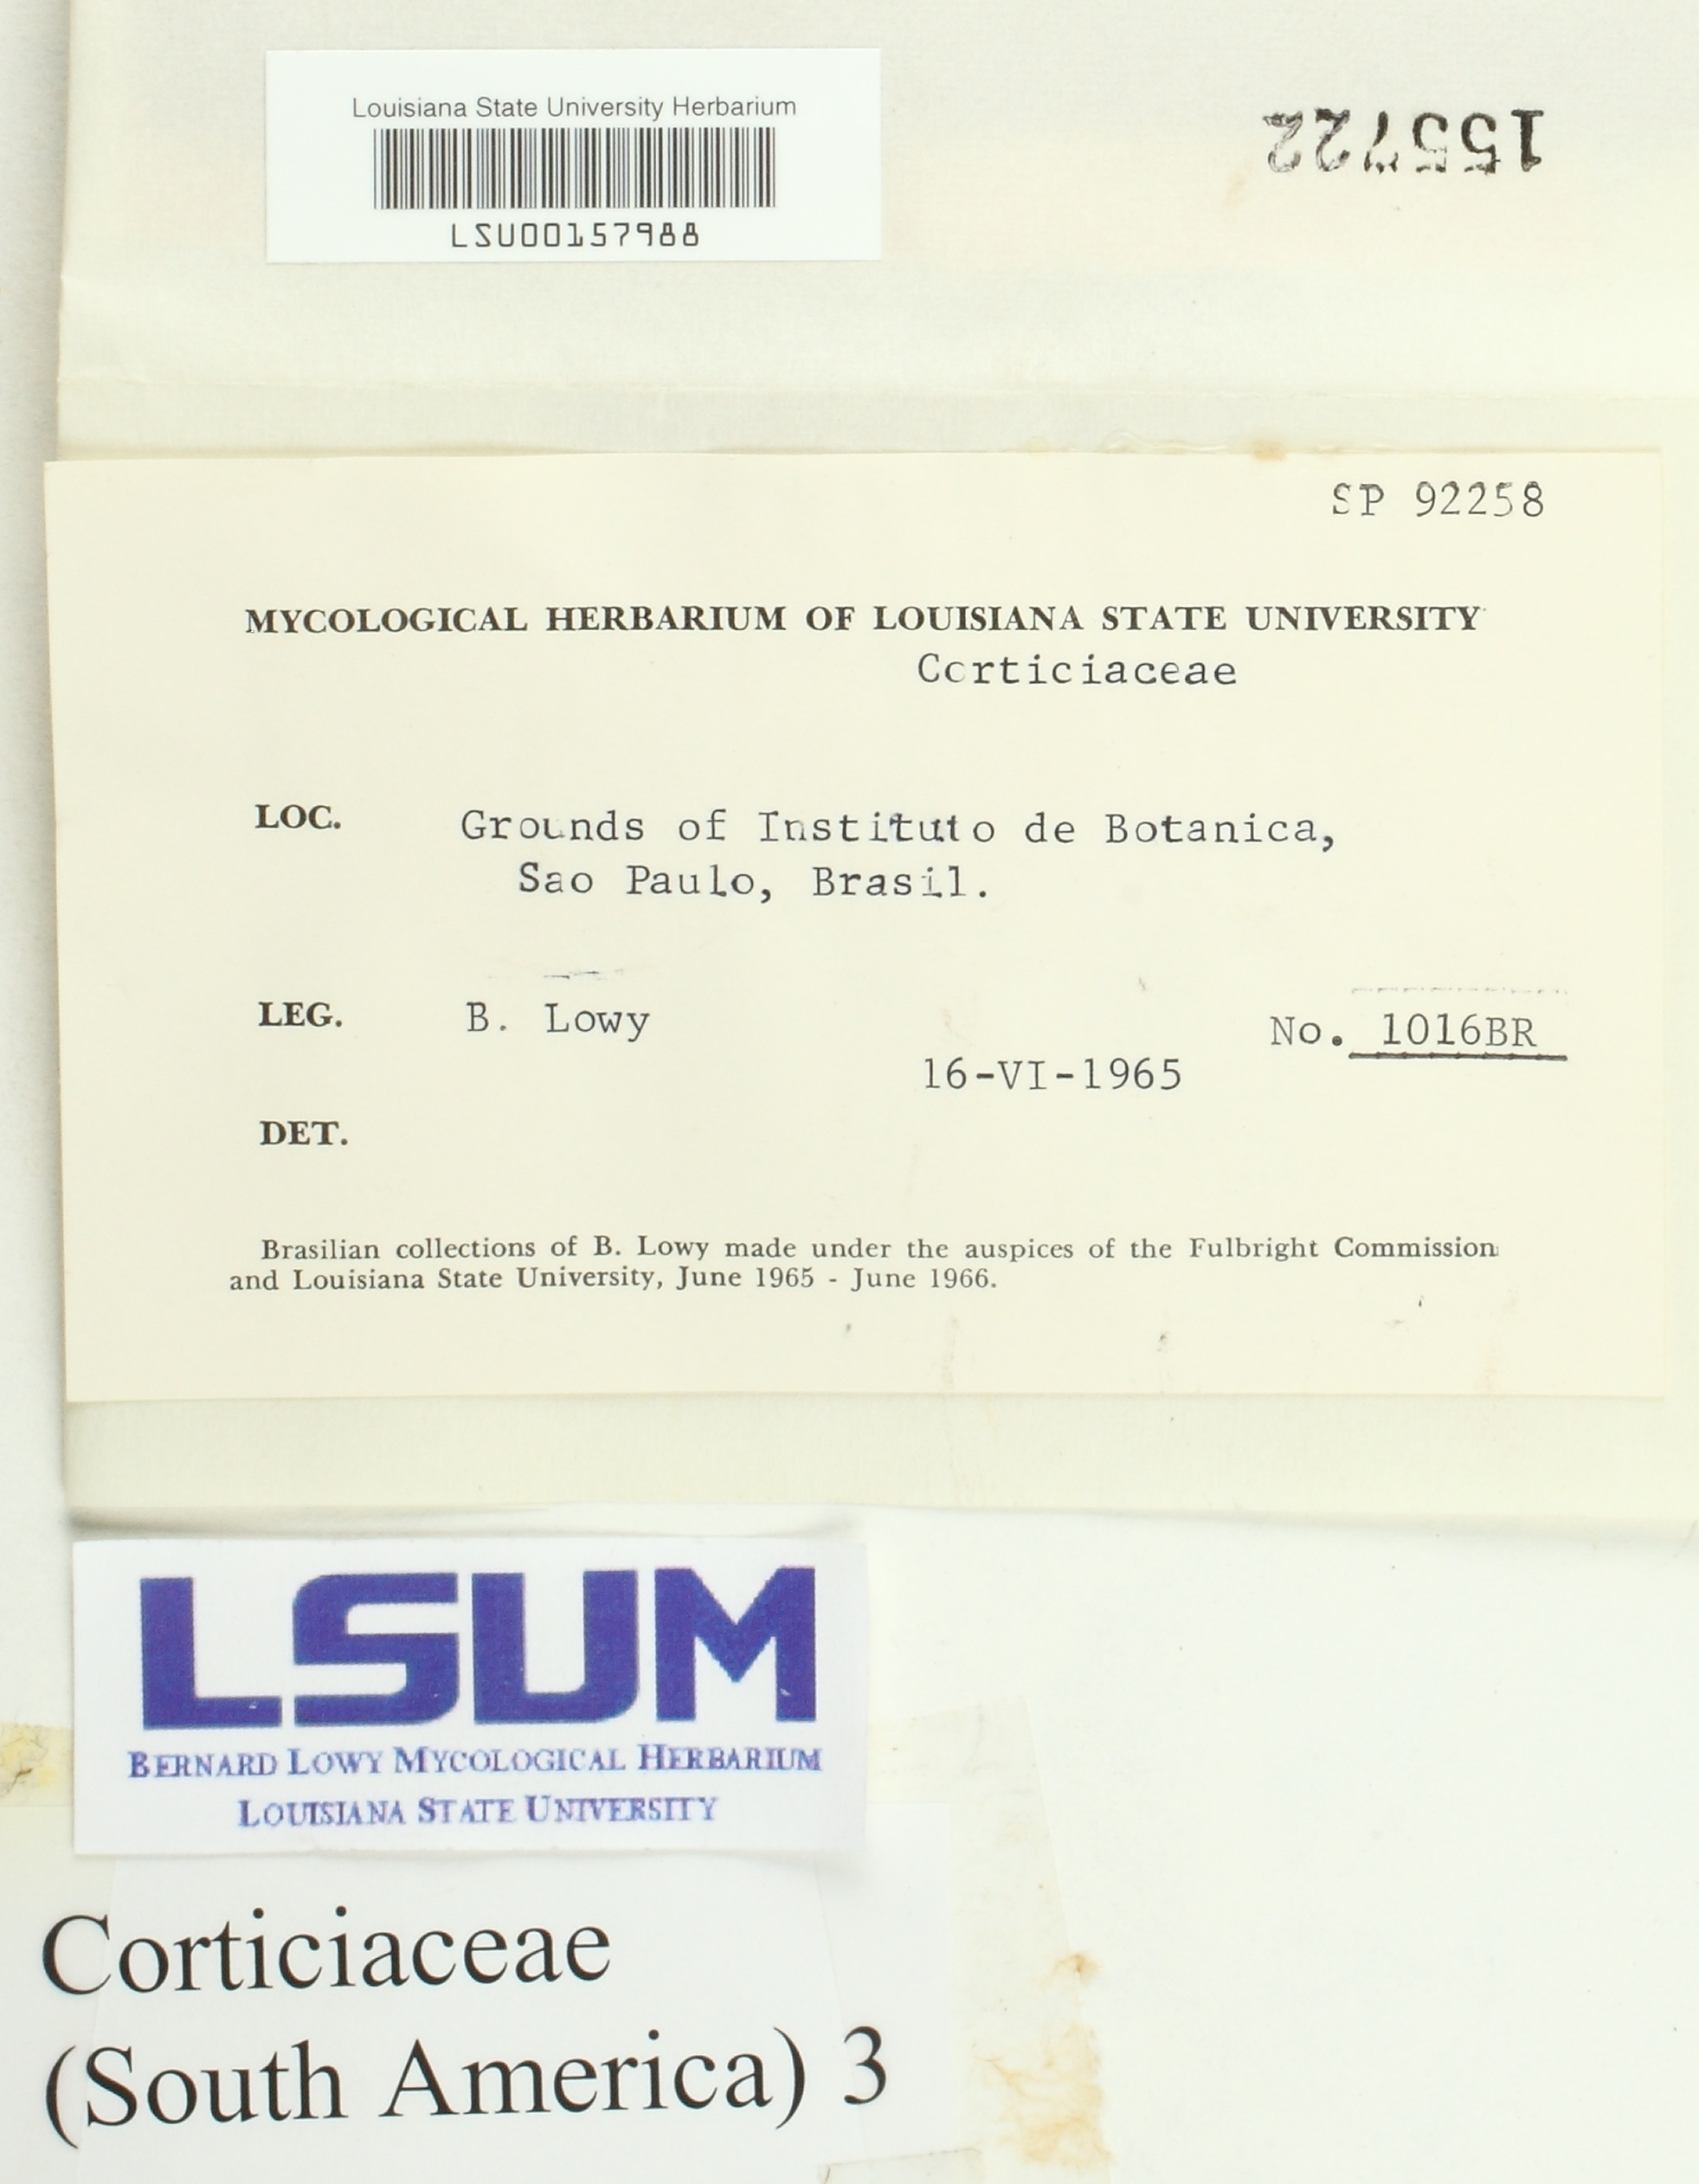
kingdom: Fungi
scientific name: Fungi
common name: Fungi
